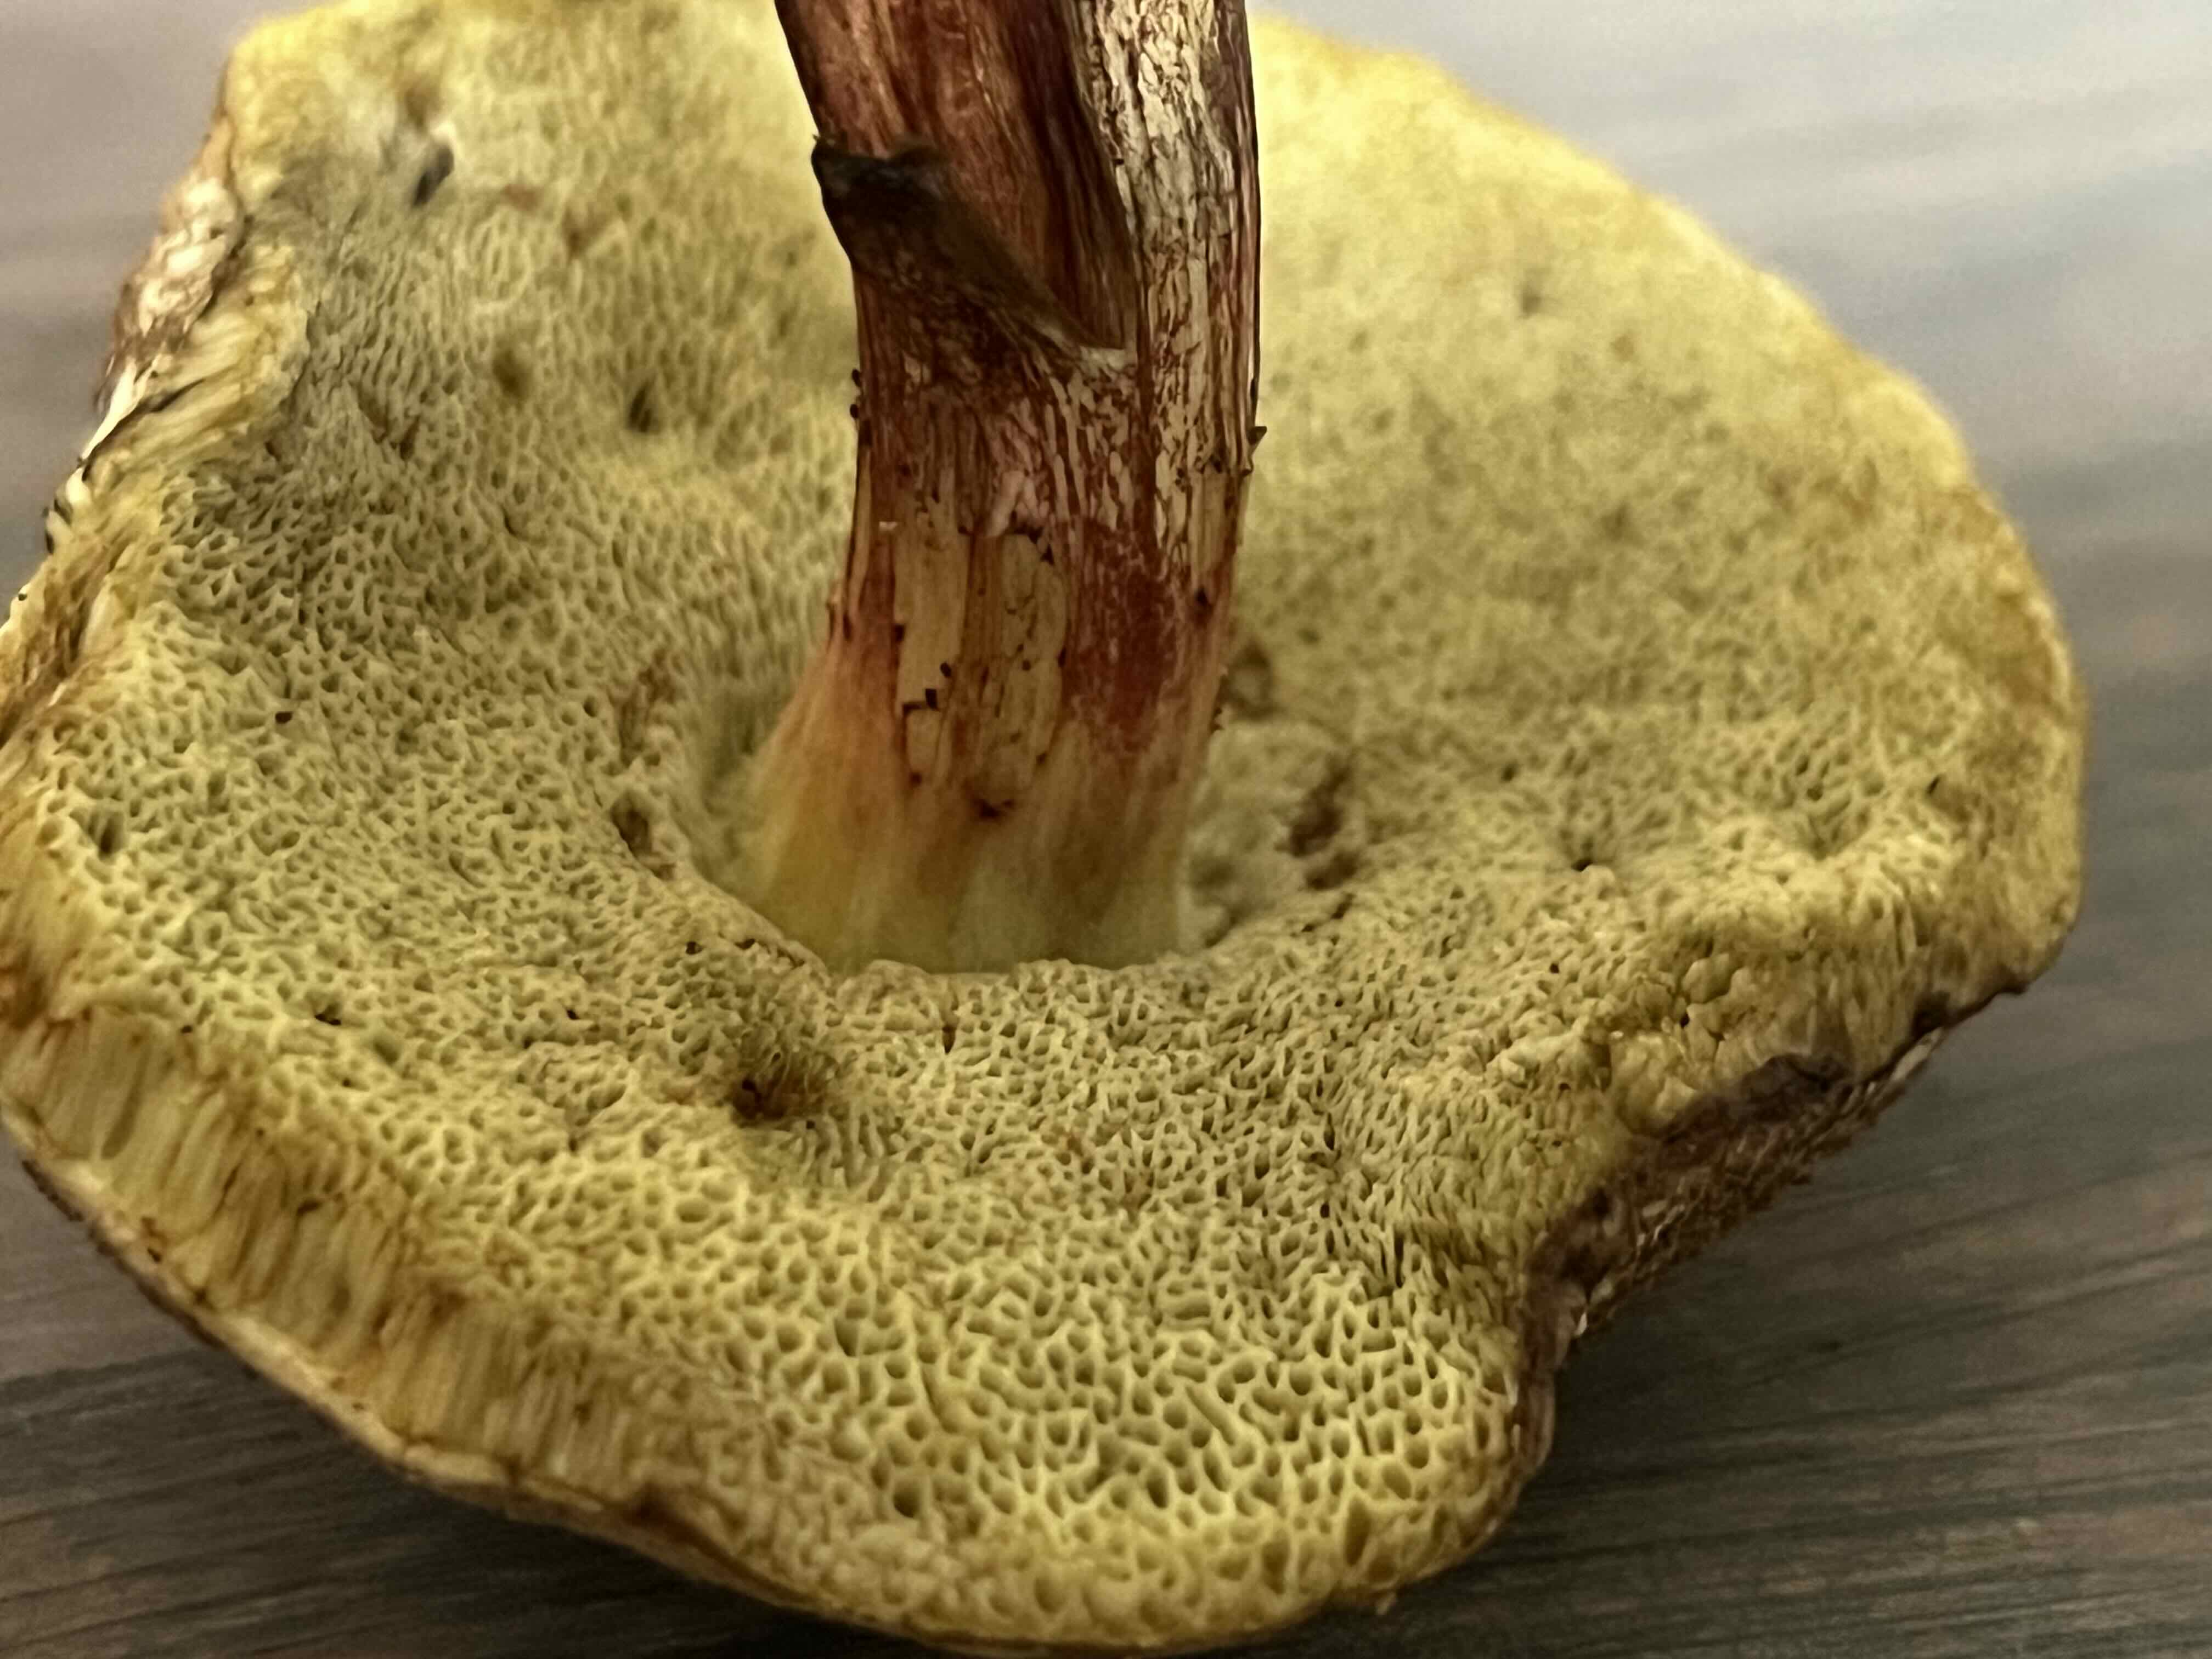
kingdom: Fungi
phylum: Basidiomycota
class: Agaricomycetes
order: Boletales
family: Boletaceae
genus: Xerocomellus
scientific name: Xerocomellus chrysenteron
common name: rødsprukken rørhat
